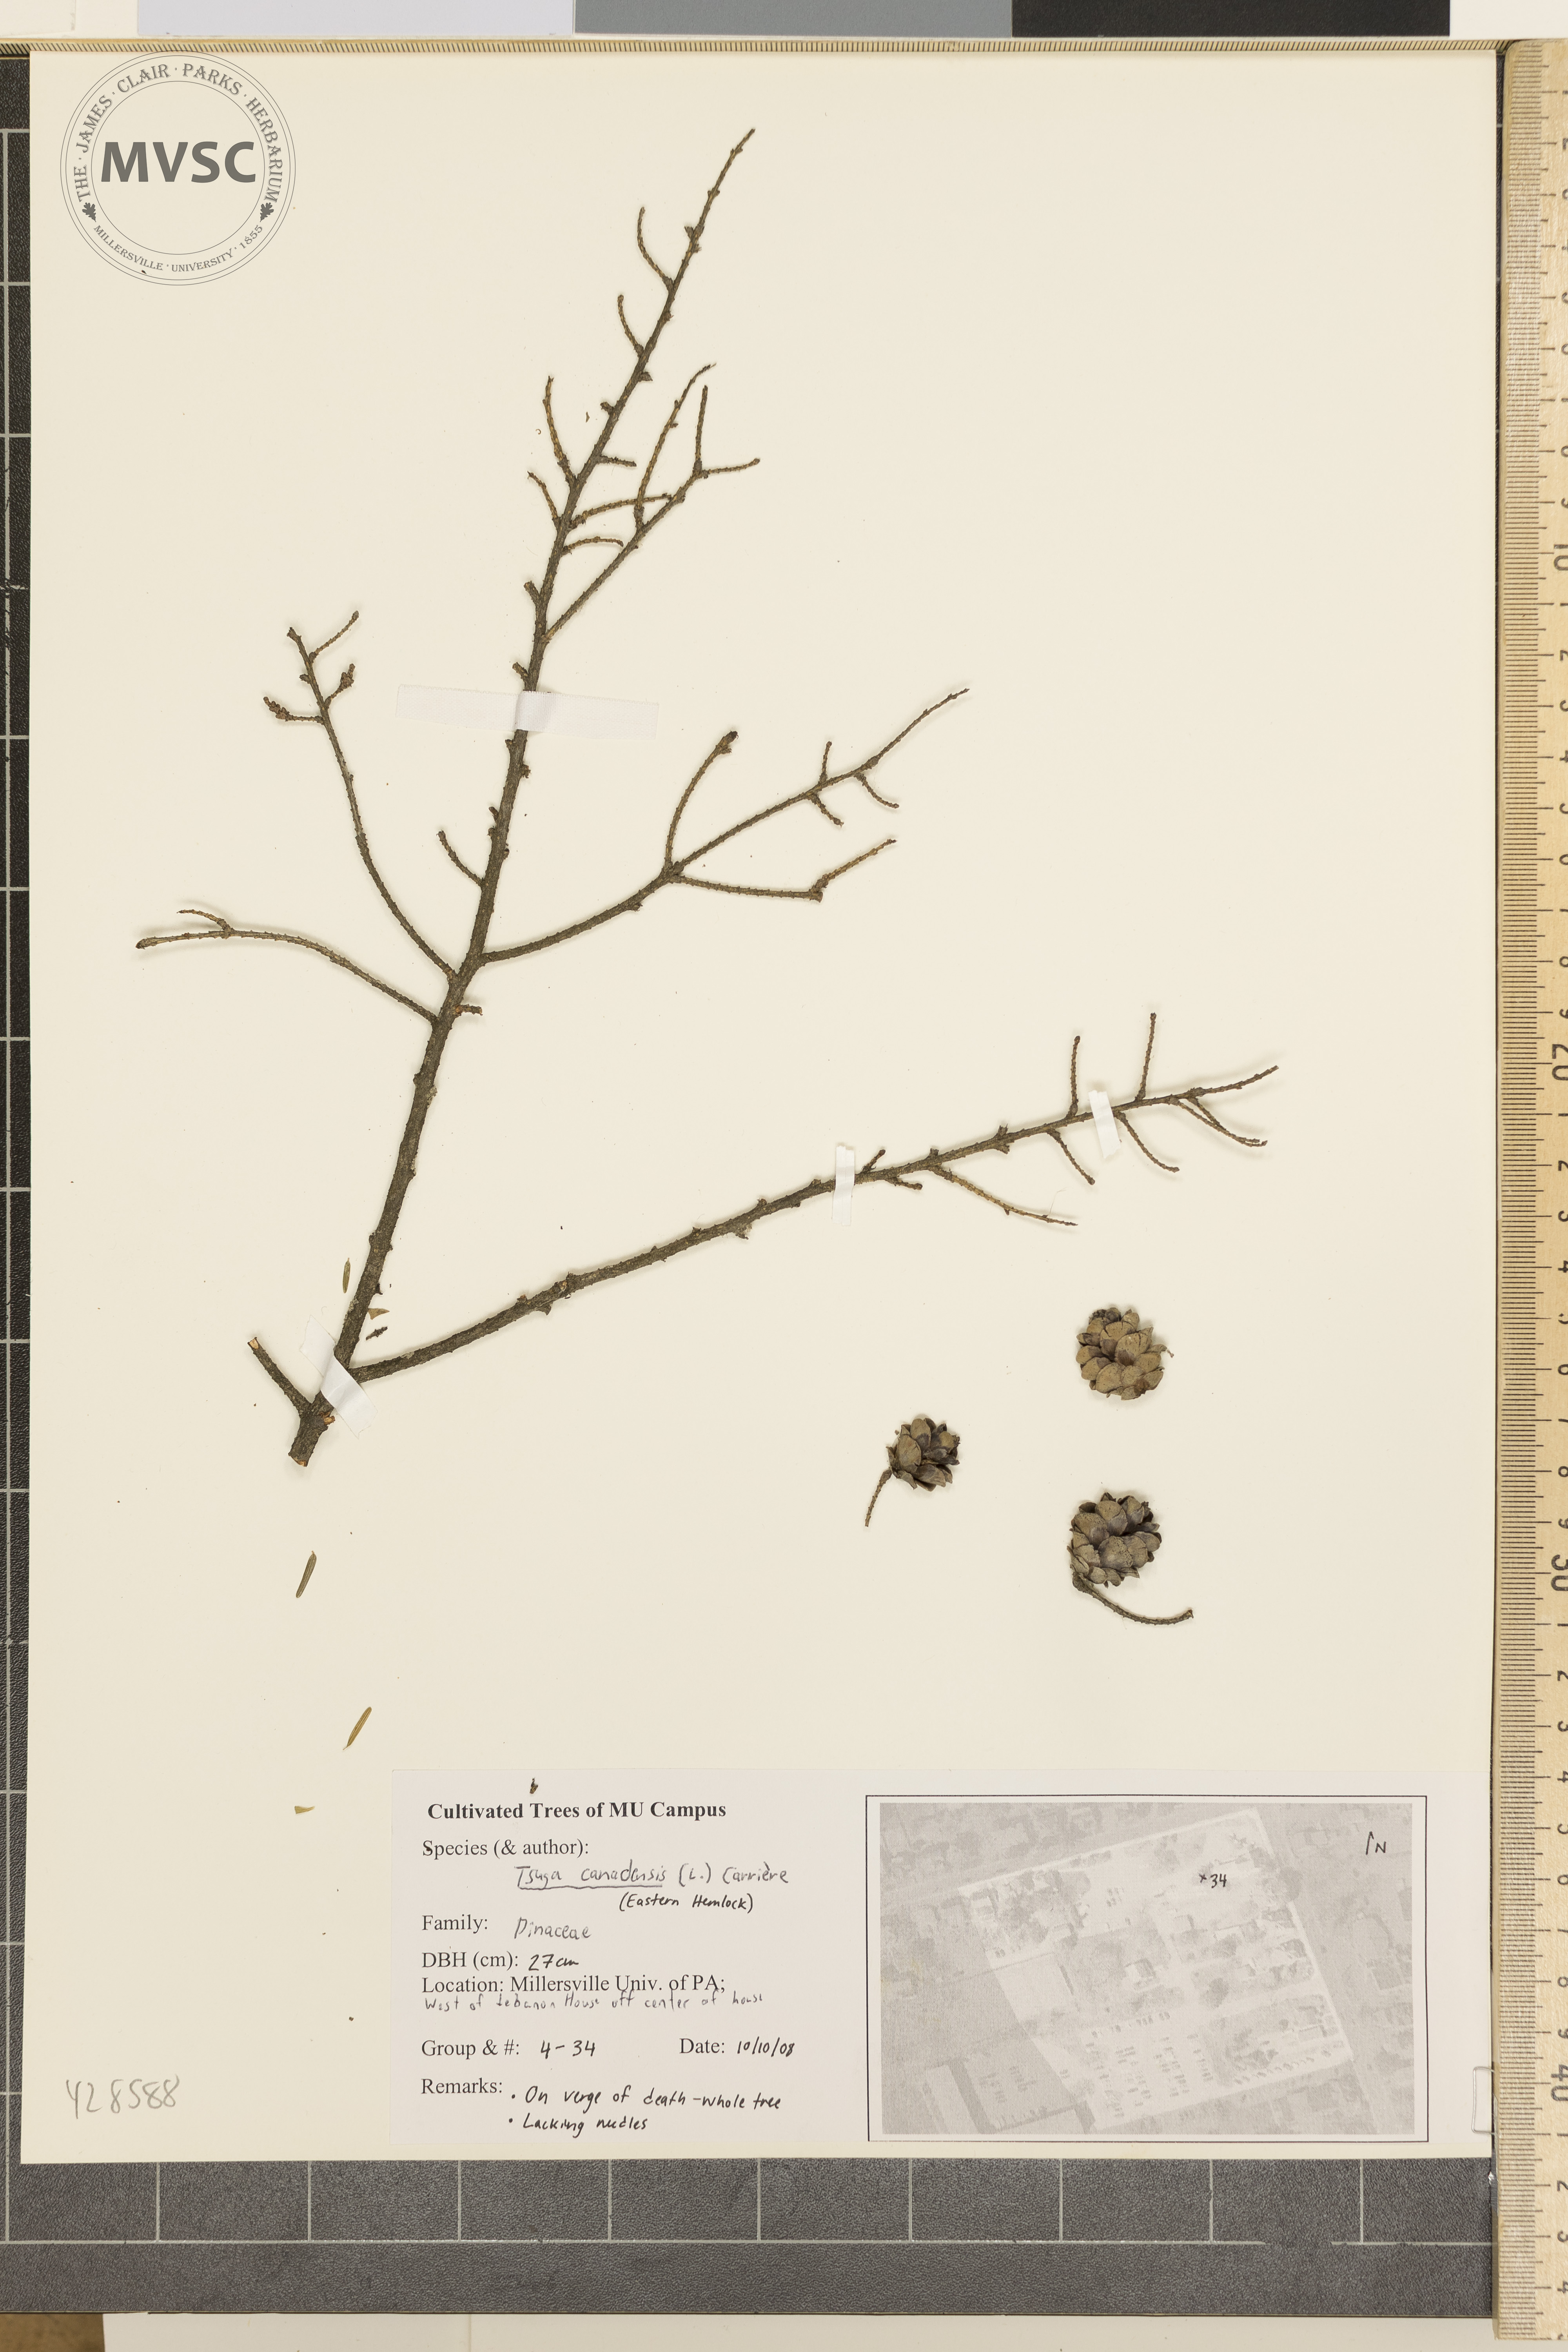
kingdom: Plantae
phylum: Tracheophyta
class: Pinopsida
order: Pinales
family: Pinaceae
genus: Tsuga
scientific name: Tsuga canadensis
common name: Canadian Hemlock
